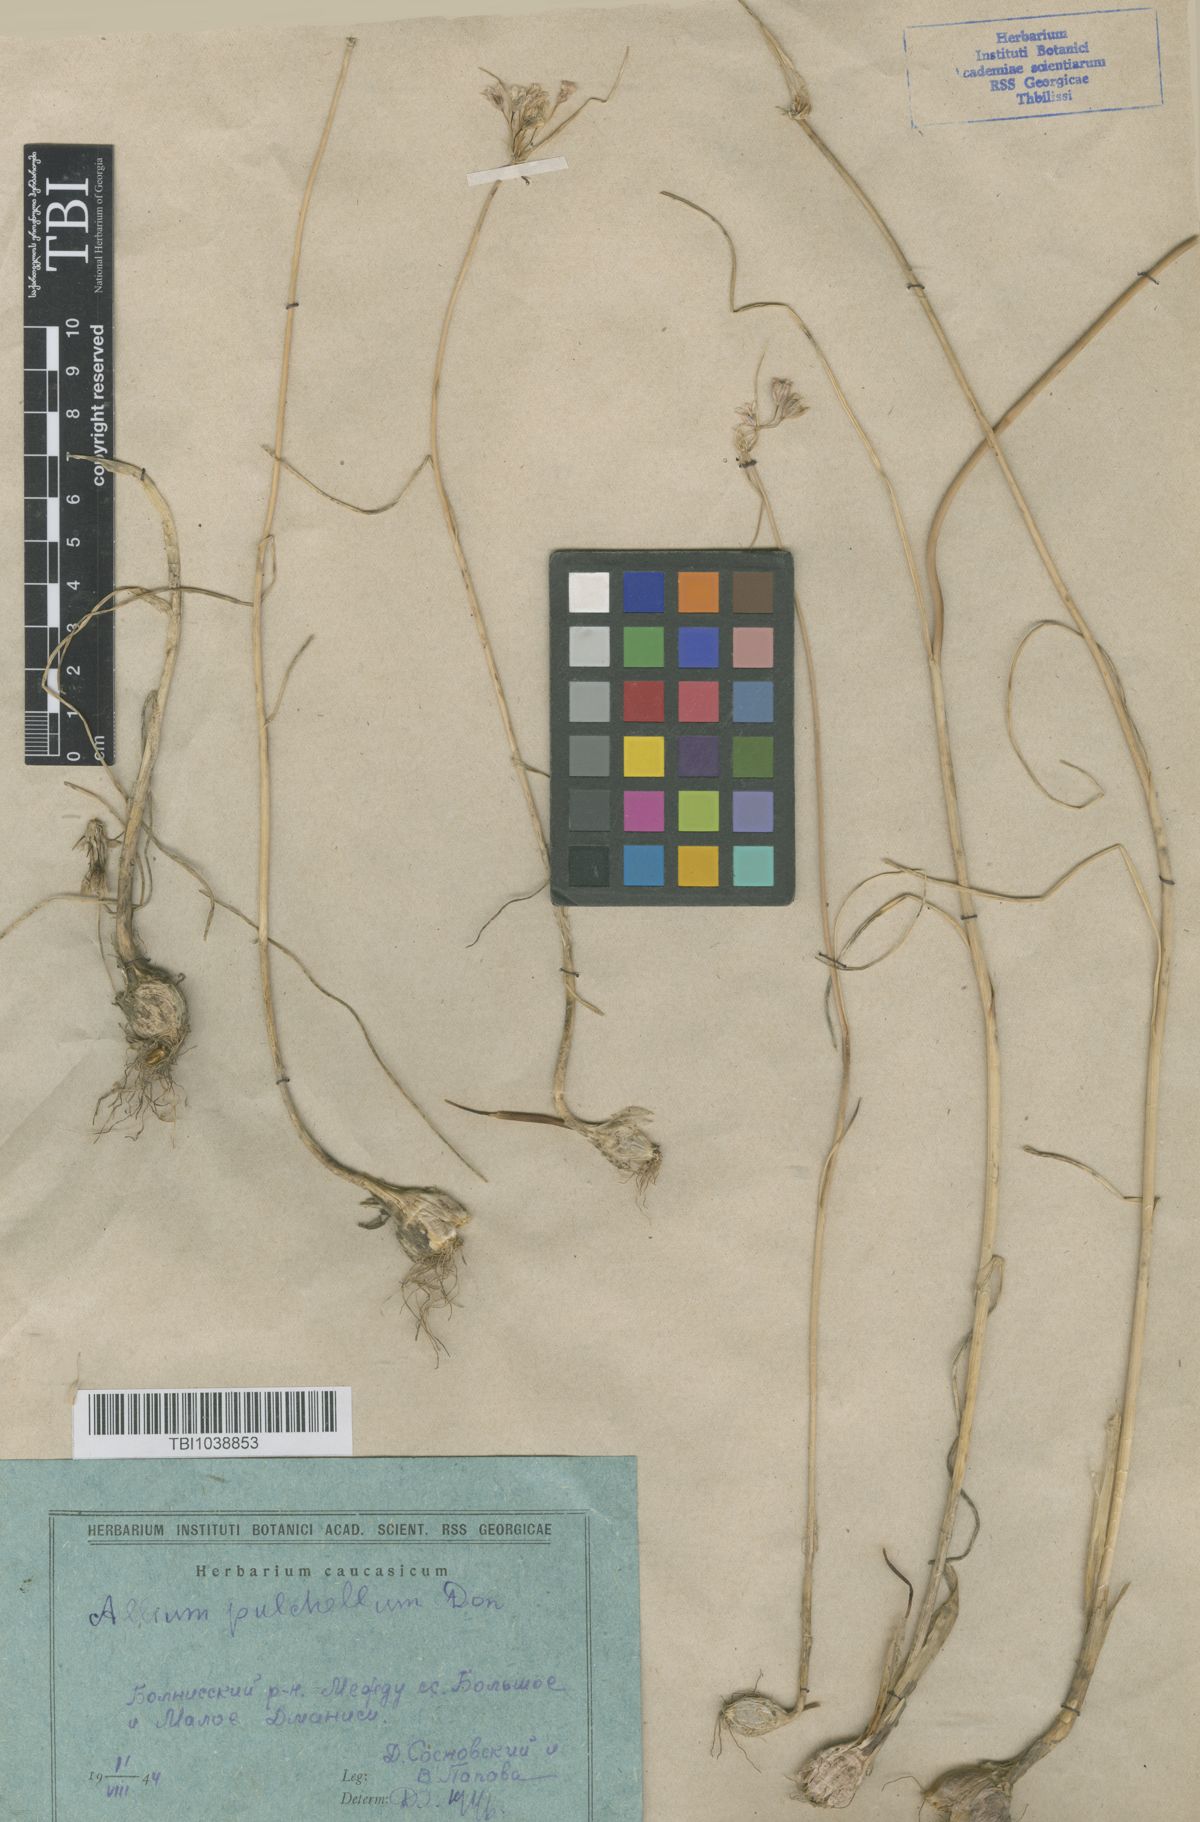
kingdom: Plantae
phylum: Tracheophyta
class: Liliopsida
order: Asparagales
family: Amaryllidaceae
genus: Allium
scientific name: Allium flavum
